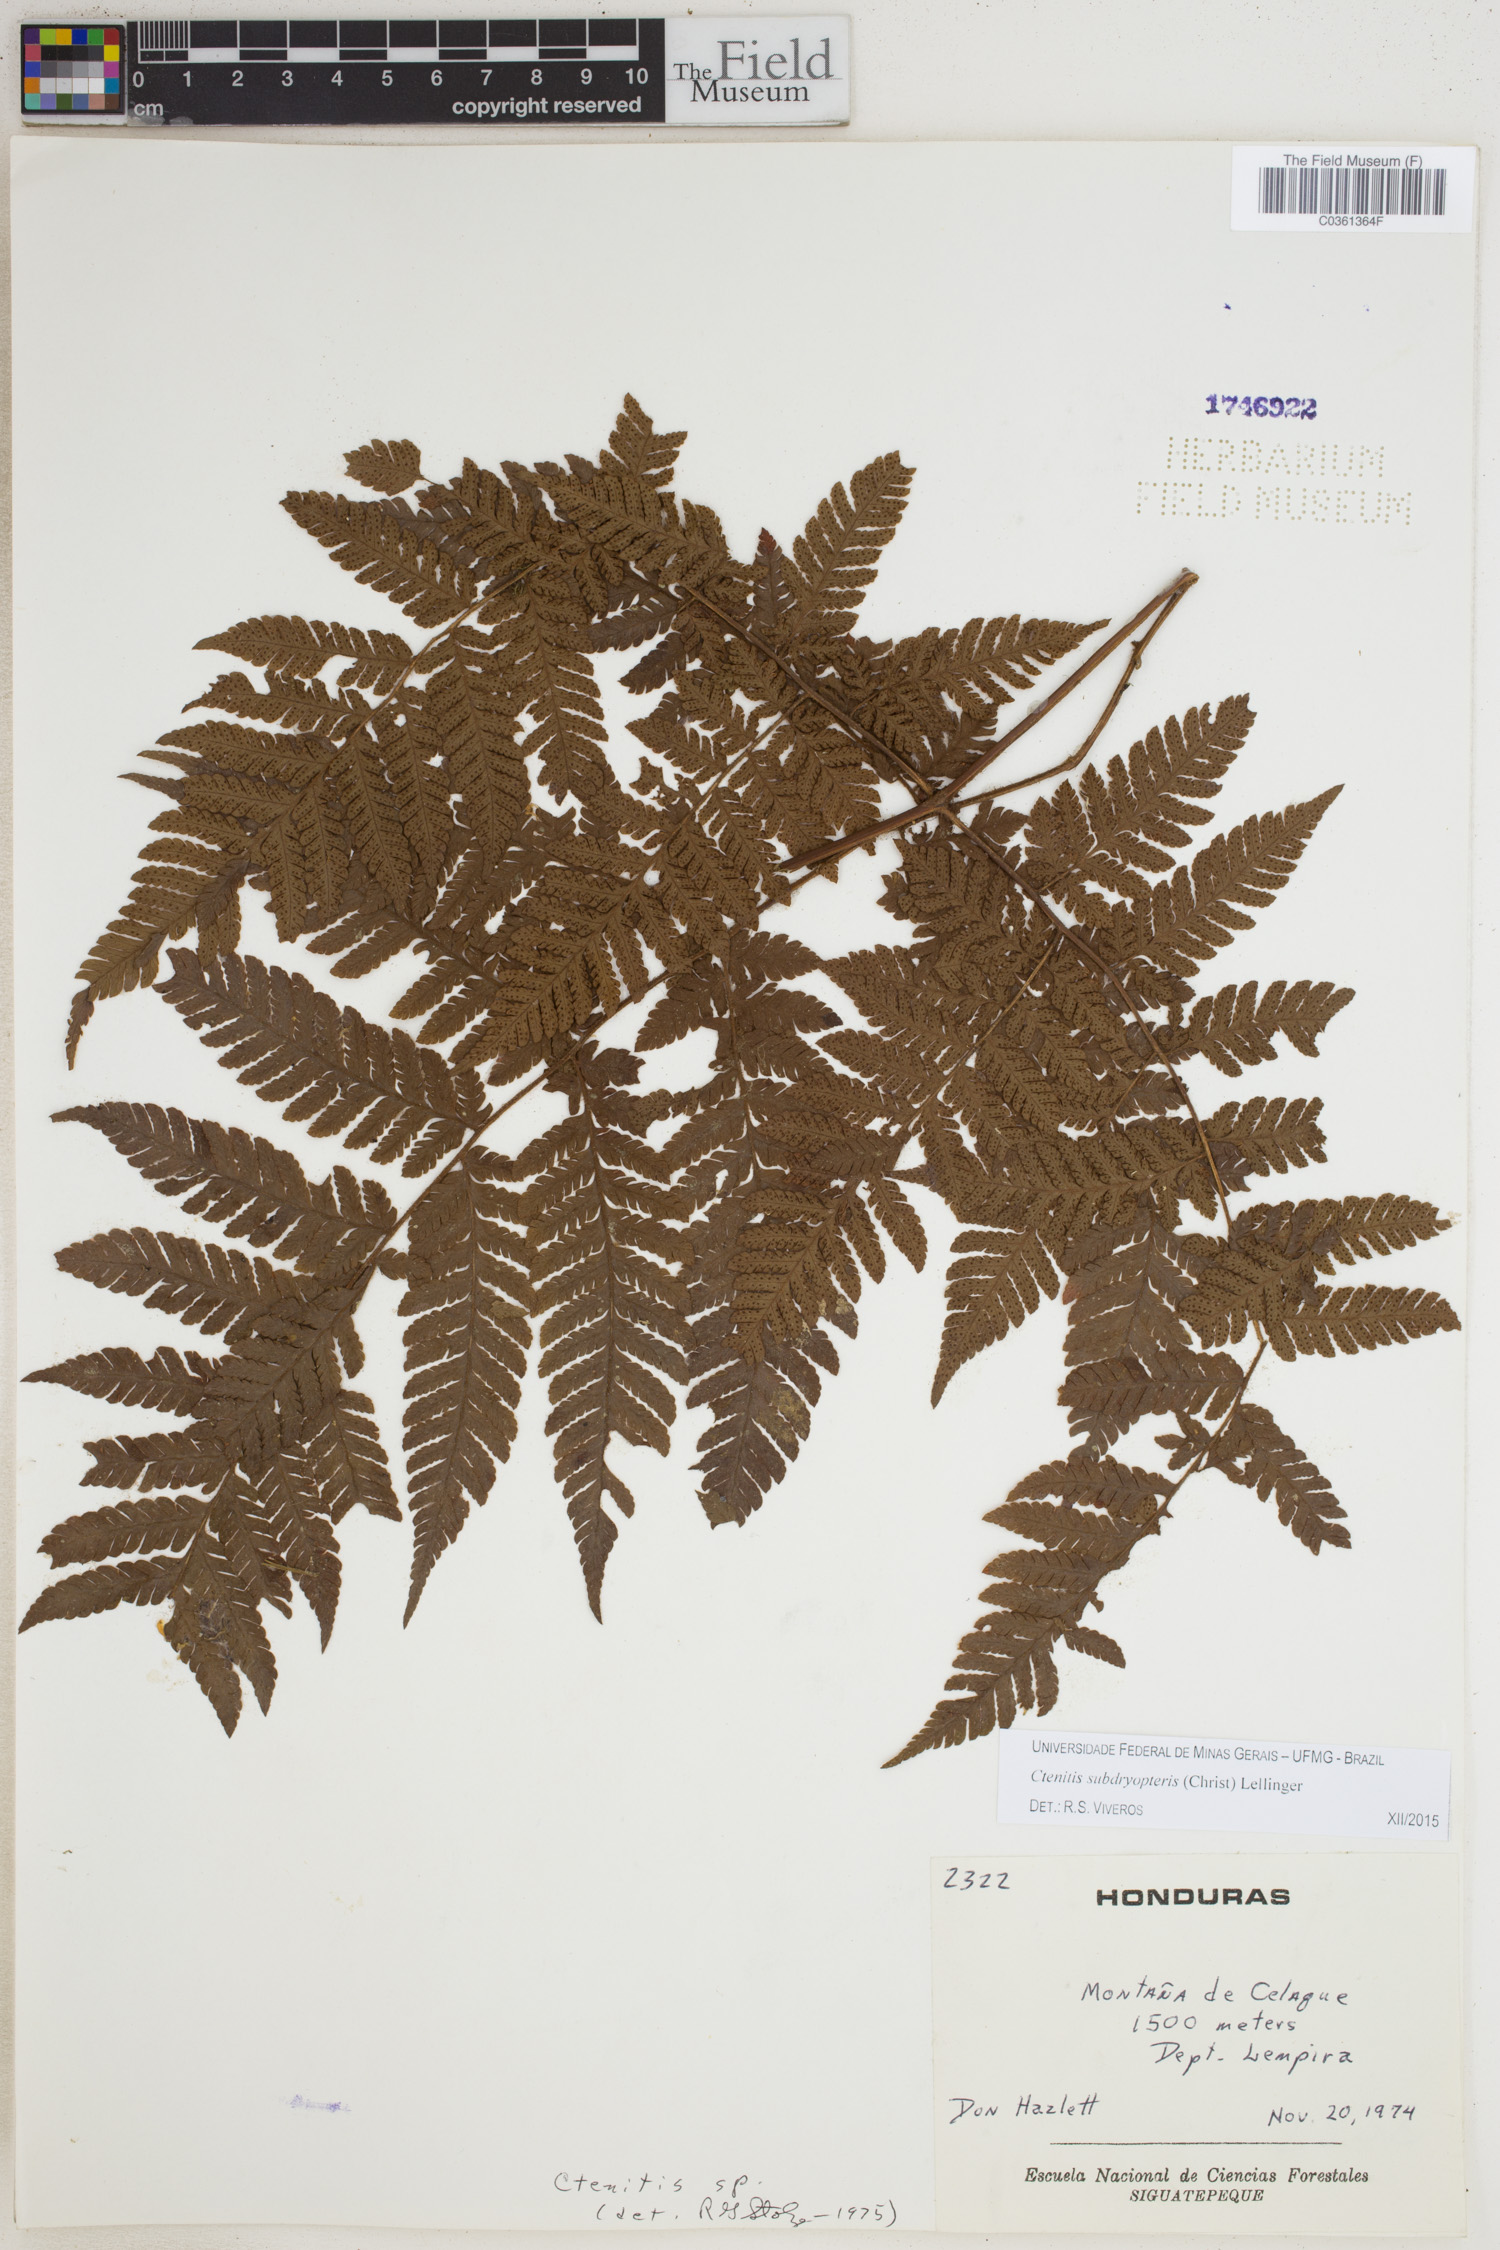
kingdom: Plantae
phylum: Tracheophyta
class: Polypodiopsida
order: Polypodiales
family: Dryopteridaceae
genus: Ctenitis
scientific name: Ctenitis subdryopteris
